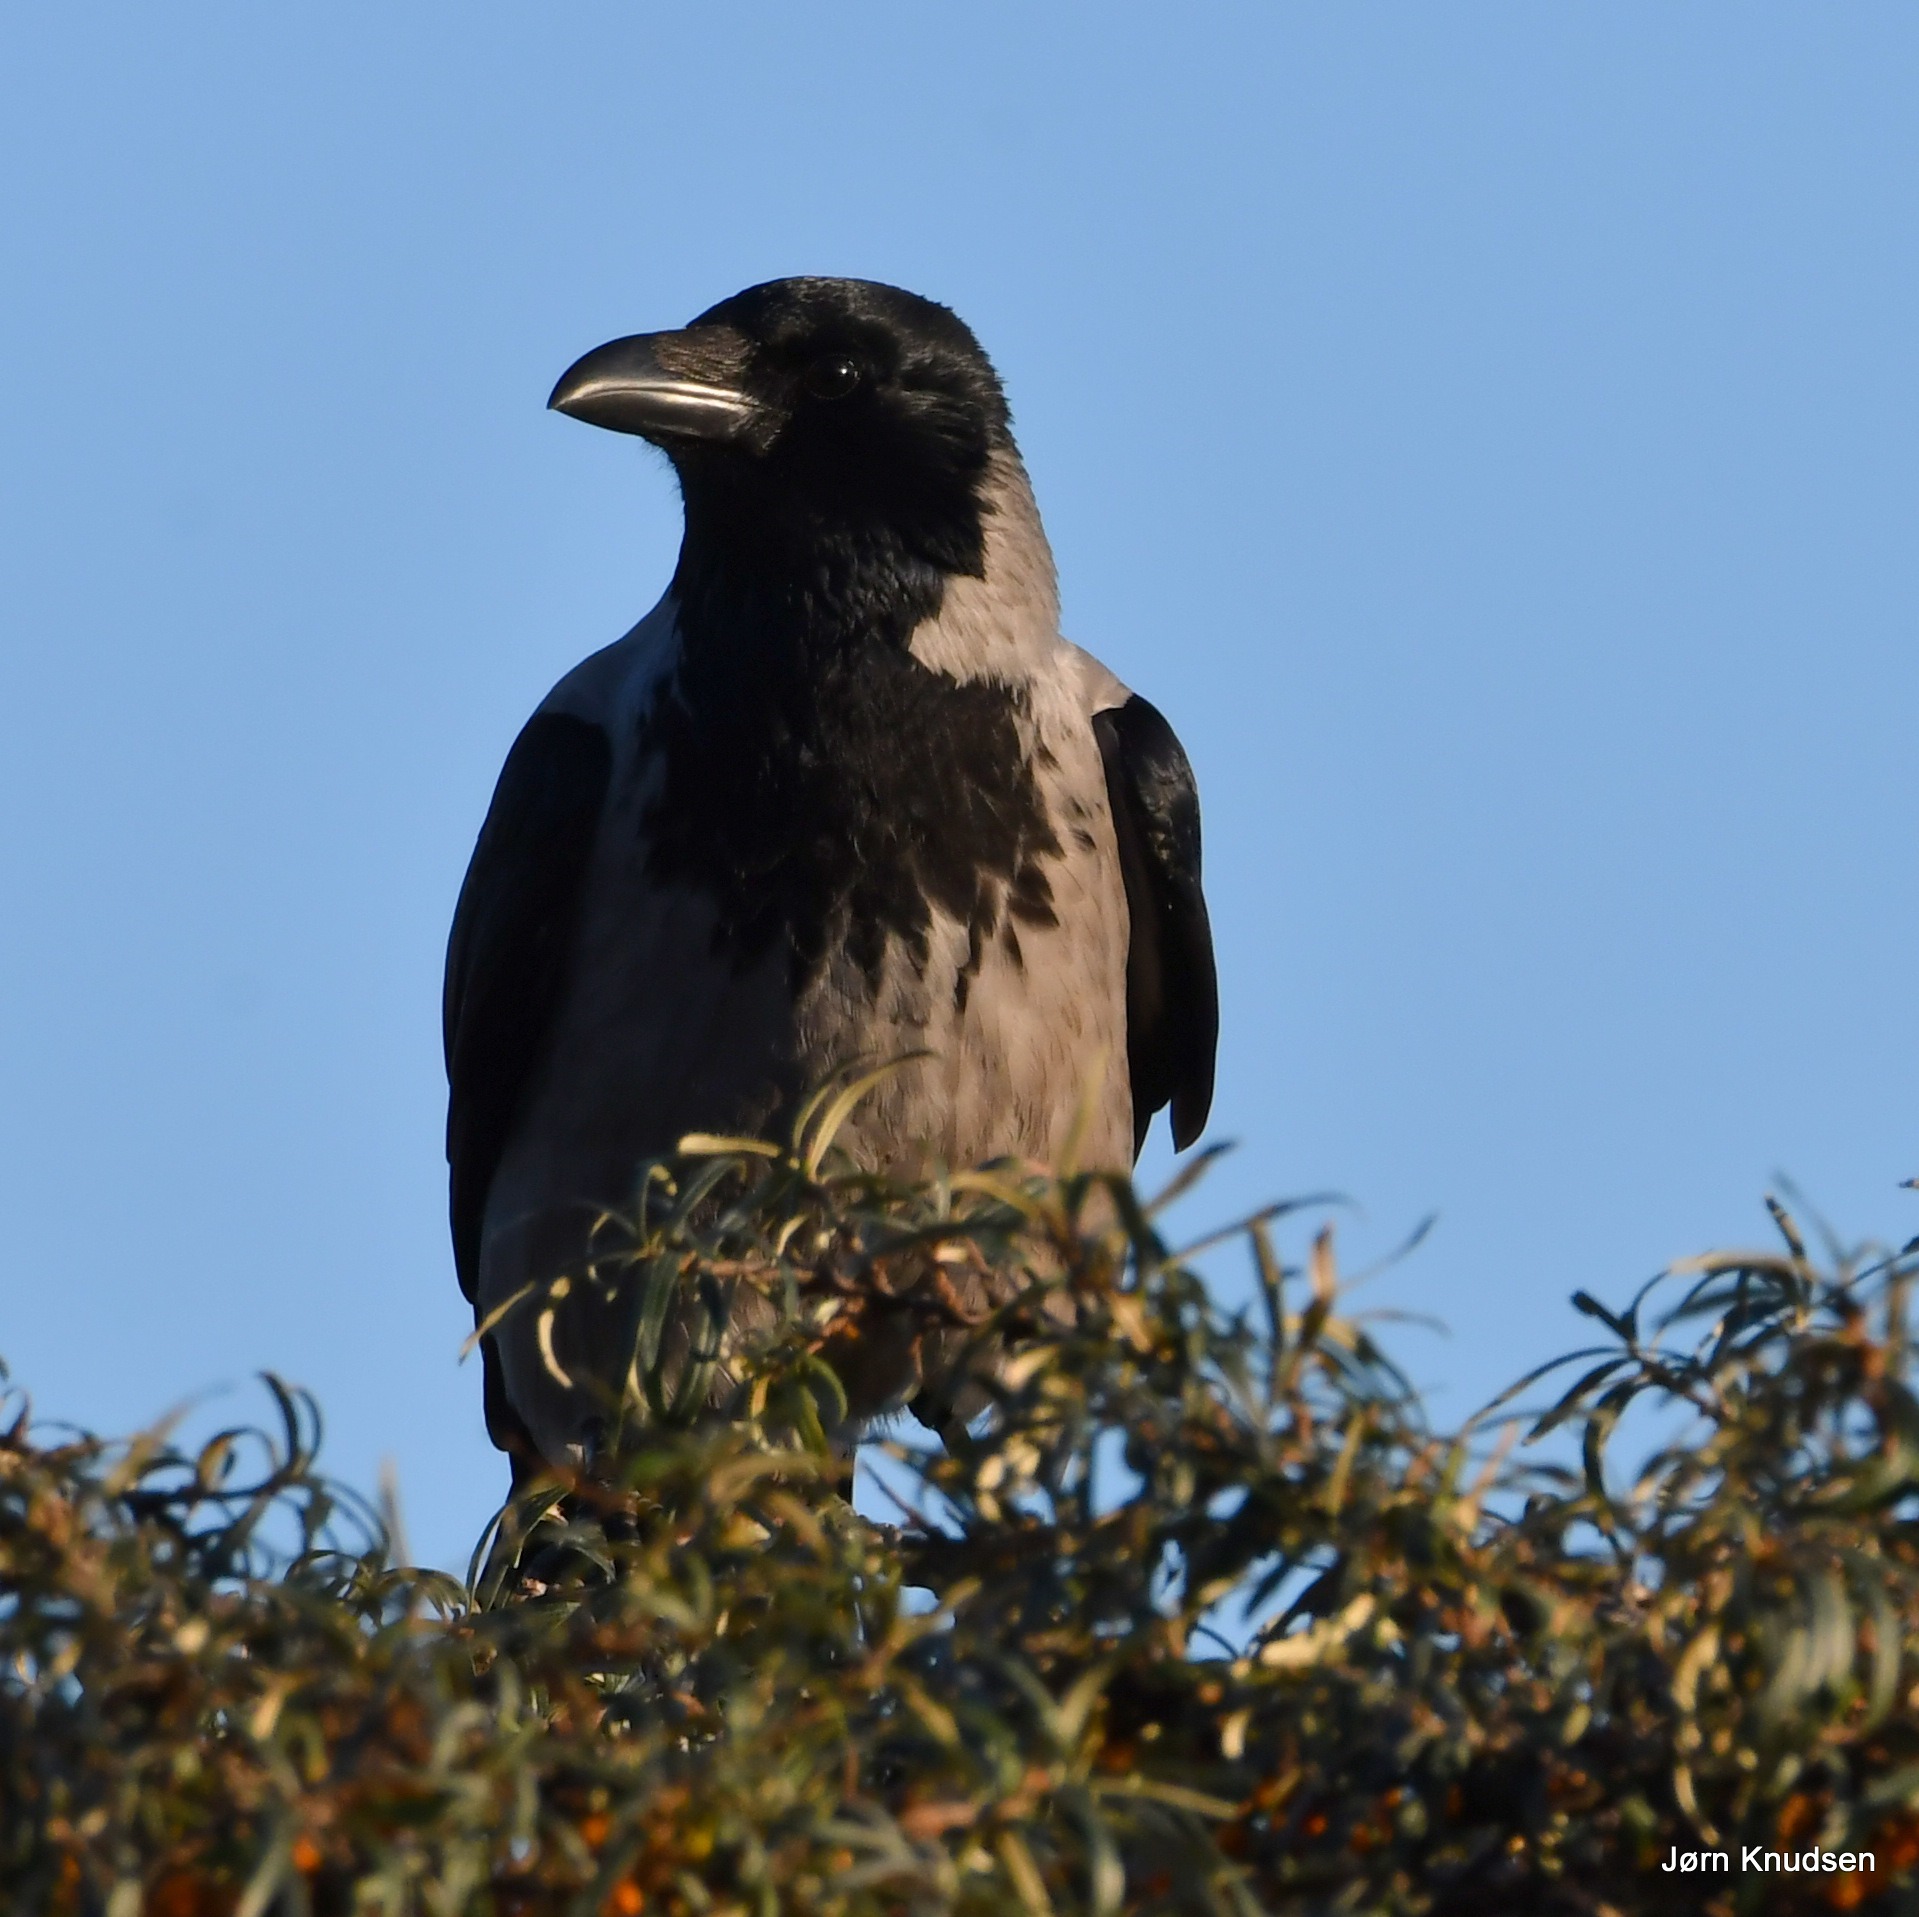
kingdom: Animalia
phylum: Chordata
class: Aves
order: Passeriformes
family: Corvidae
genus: Corvus
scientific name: Corvus cornix
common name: Gråkrage
